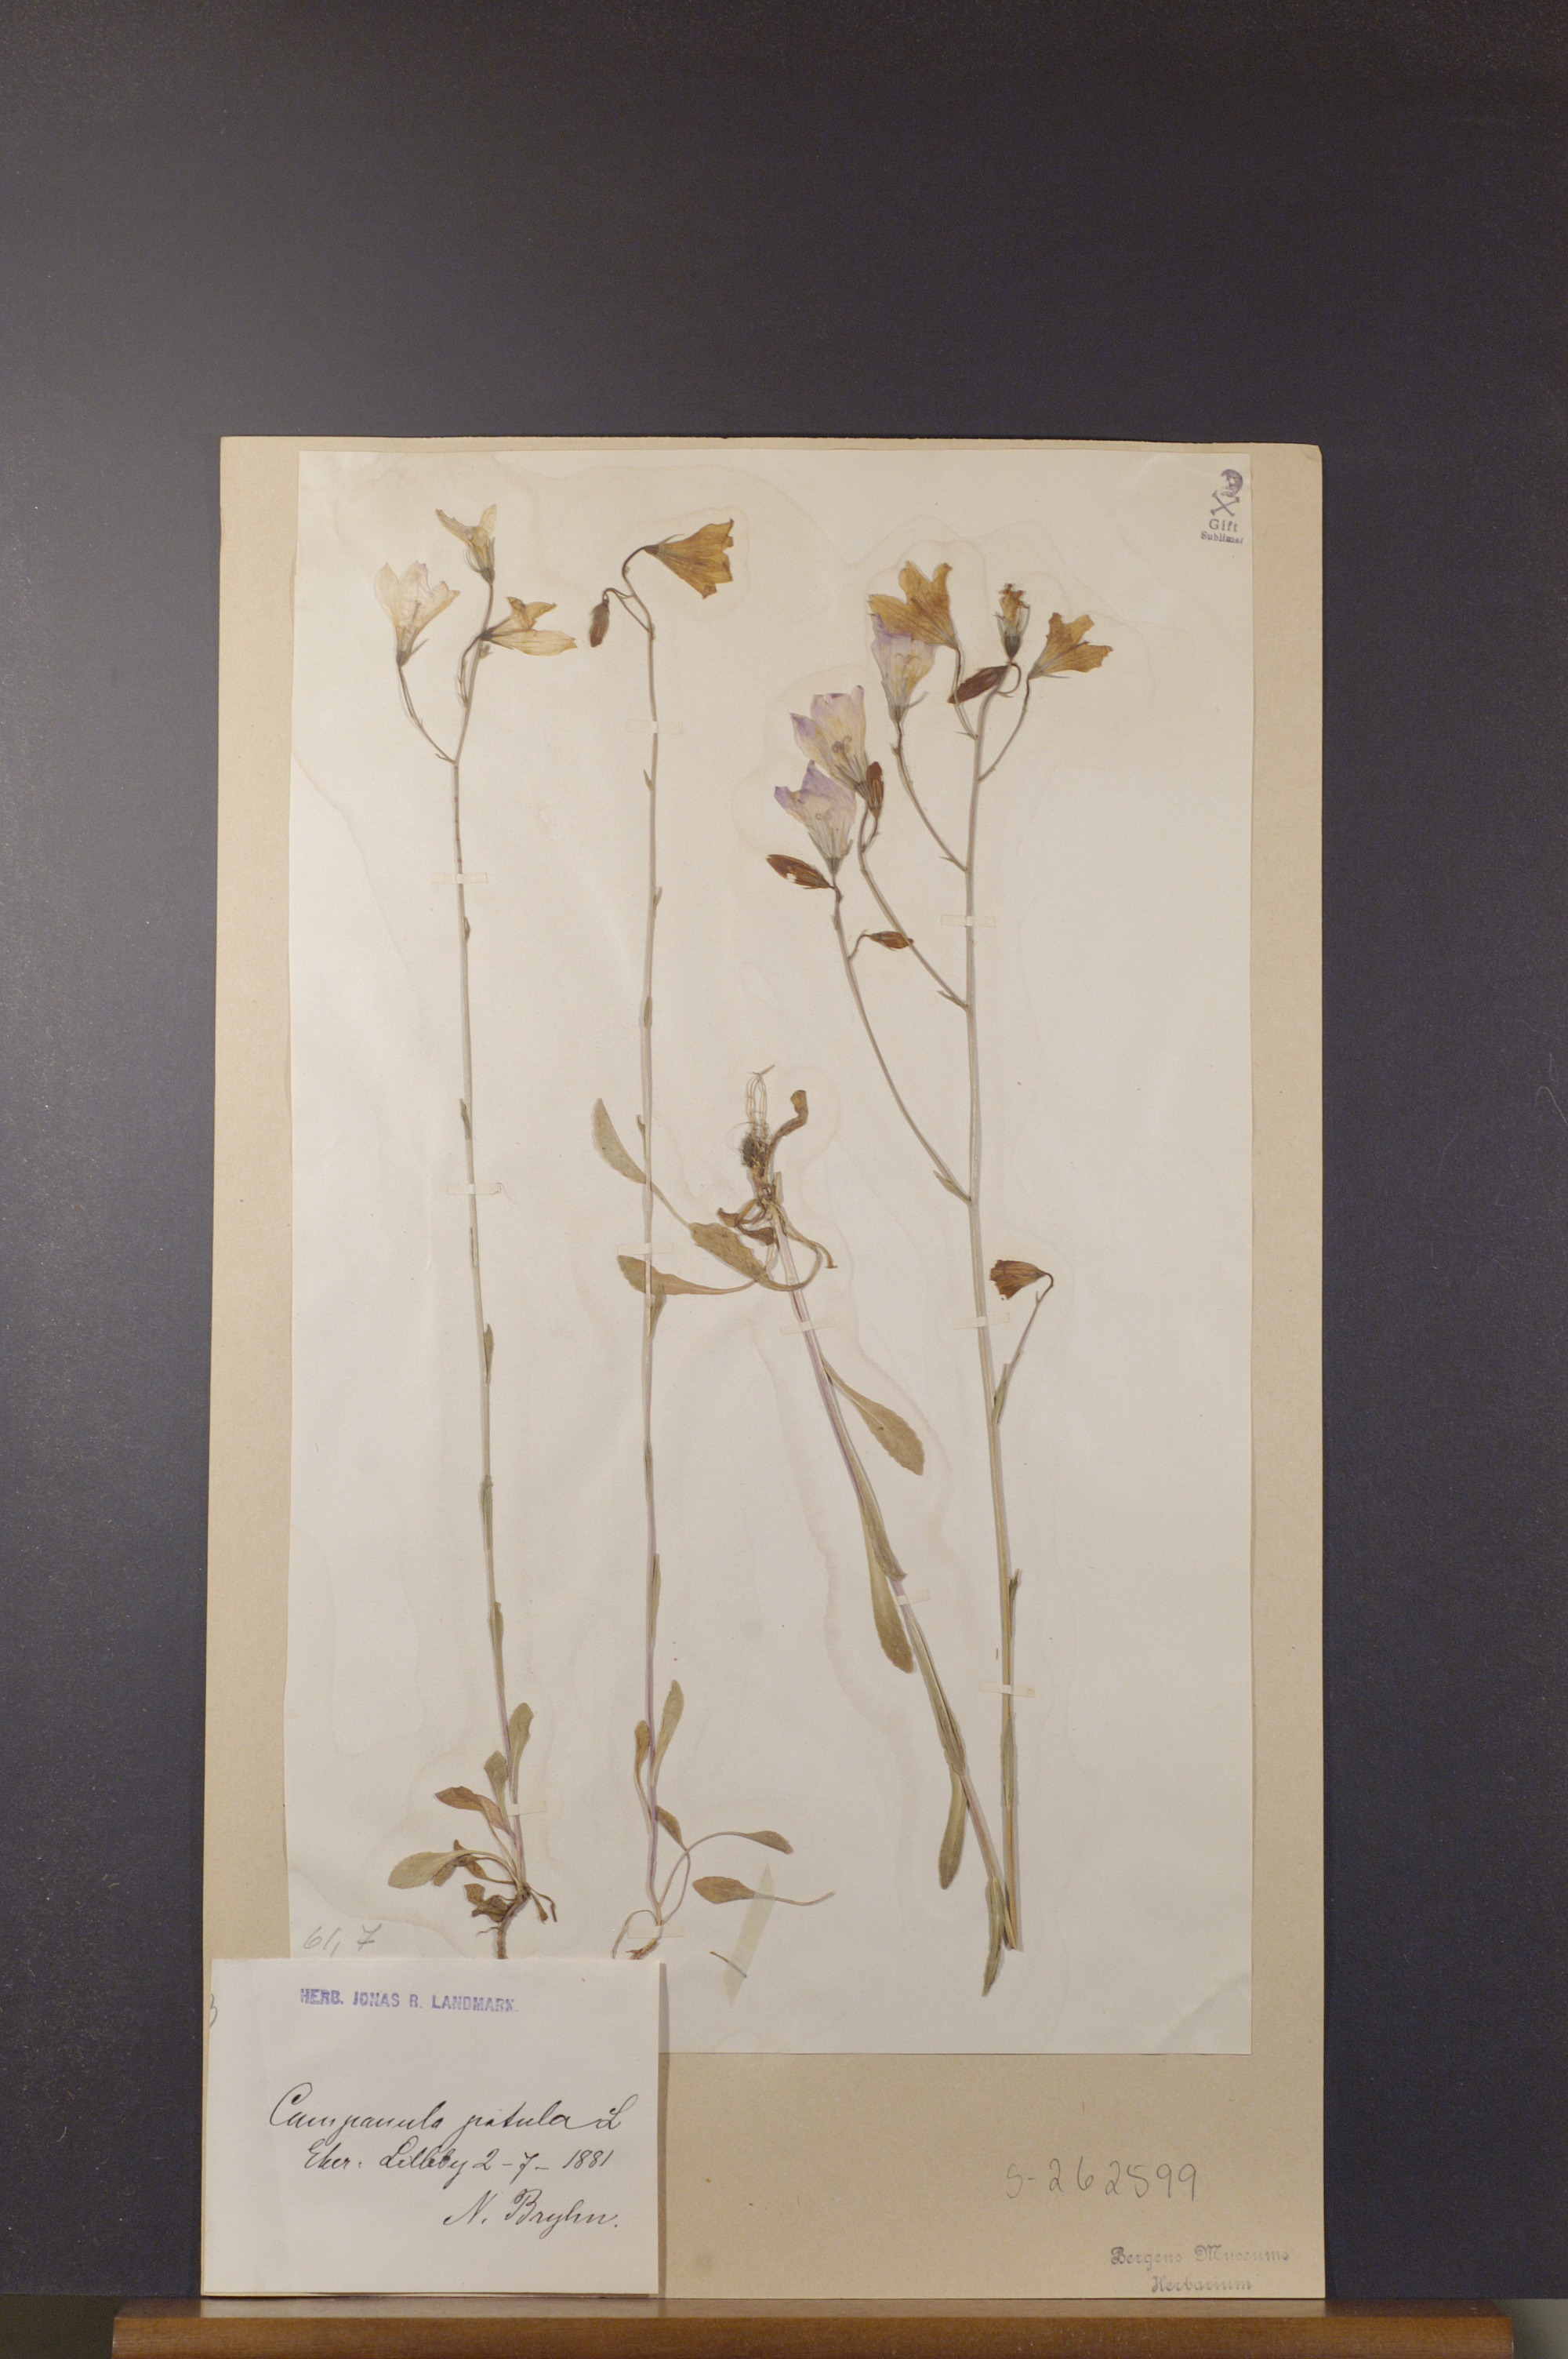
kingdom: Plantae
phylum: Tracheophyta
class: Magnoliopsida
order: Asterales
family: Campanulaceae
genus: Campanula
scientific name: Campanula patula
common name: Spreading bellflower
